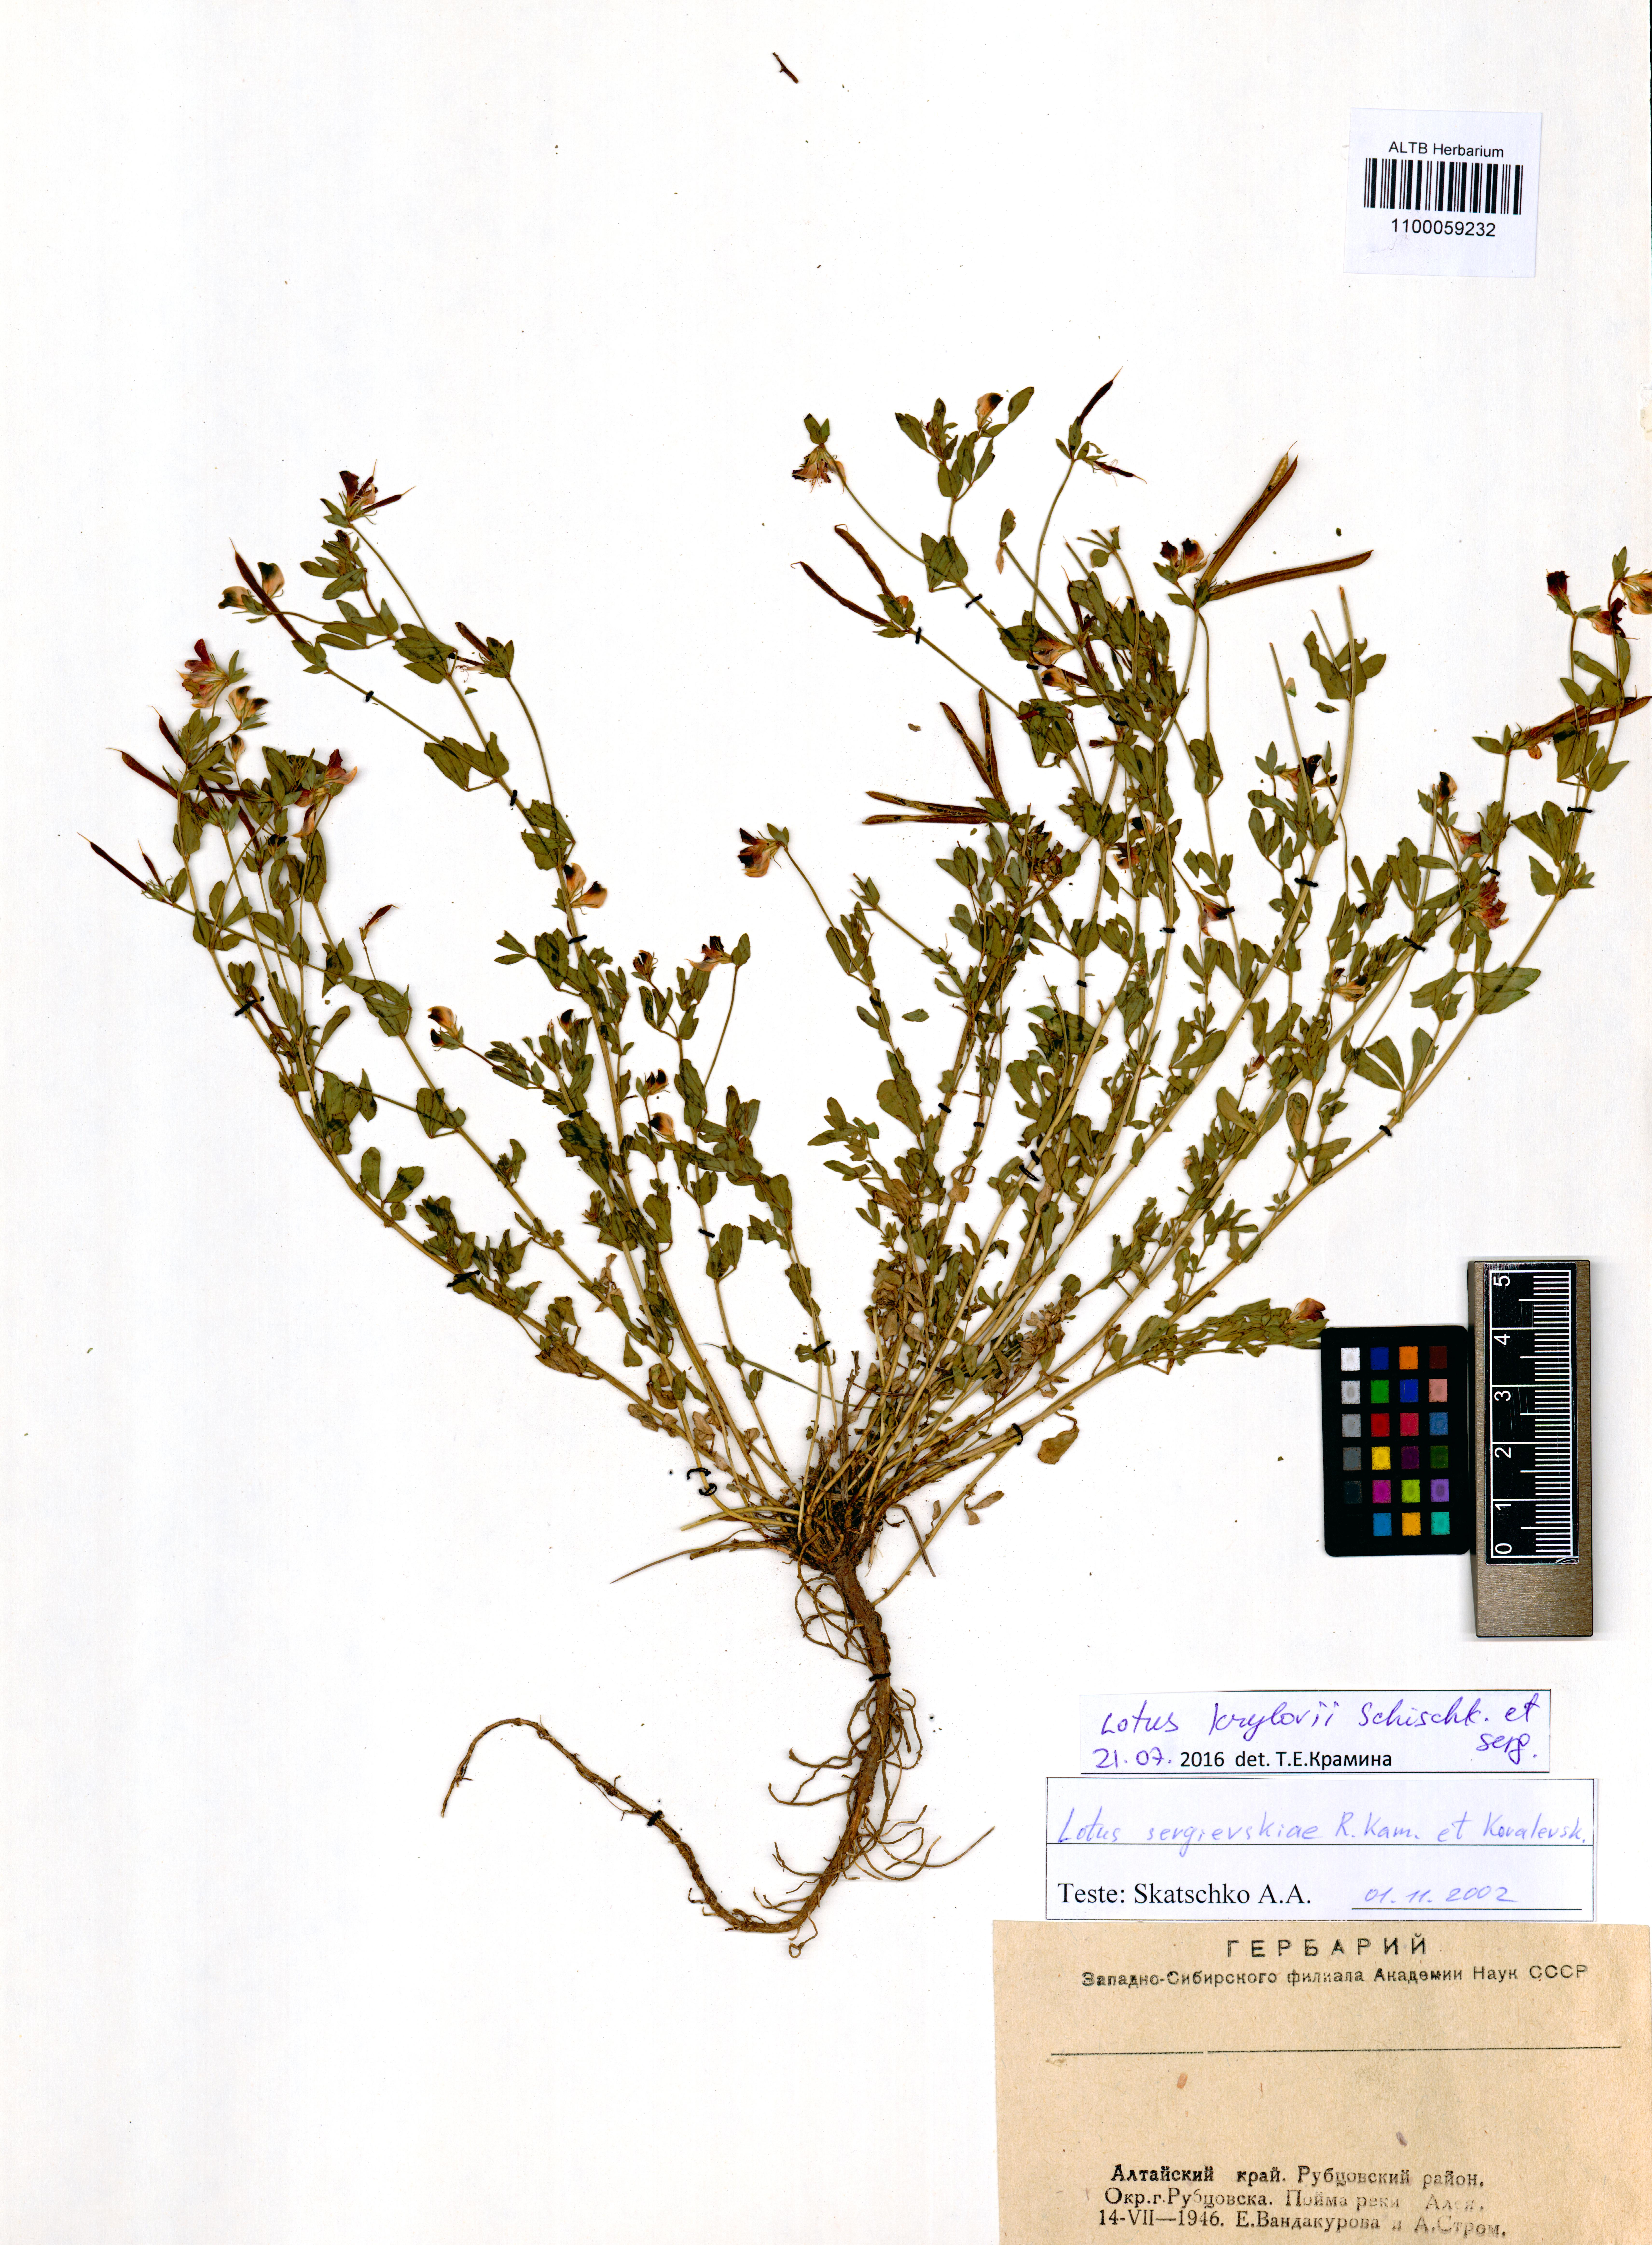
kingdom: Plantae
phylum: Tracheophyta
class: Magnoliopsida
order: Fabales
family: Fabaceae
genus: Lotus
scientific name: Lotus krylovii
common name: Krylov's bird's-foot trefoil
